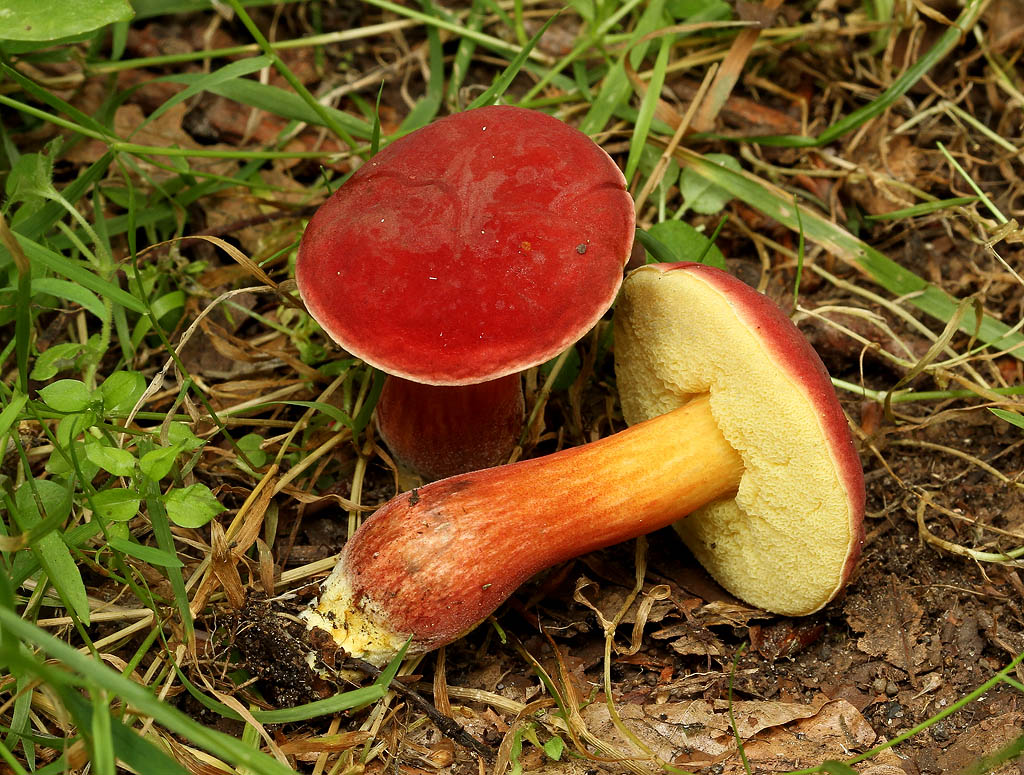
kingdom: Fungi
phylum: Basidiomycota
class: Agaricomycetes
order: Boletales
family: Boletaceae
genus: Hortiboletus
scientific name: Hortiboletus rubellus
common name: blodrød rørhat
